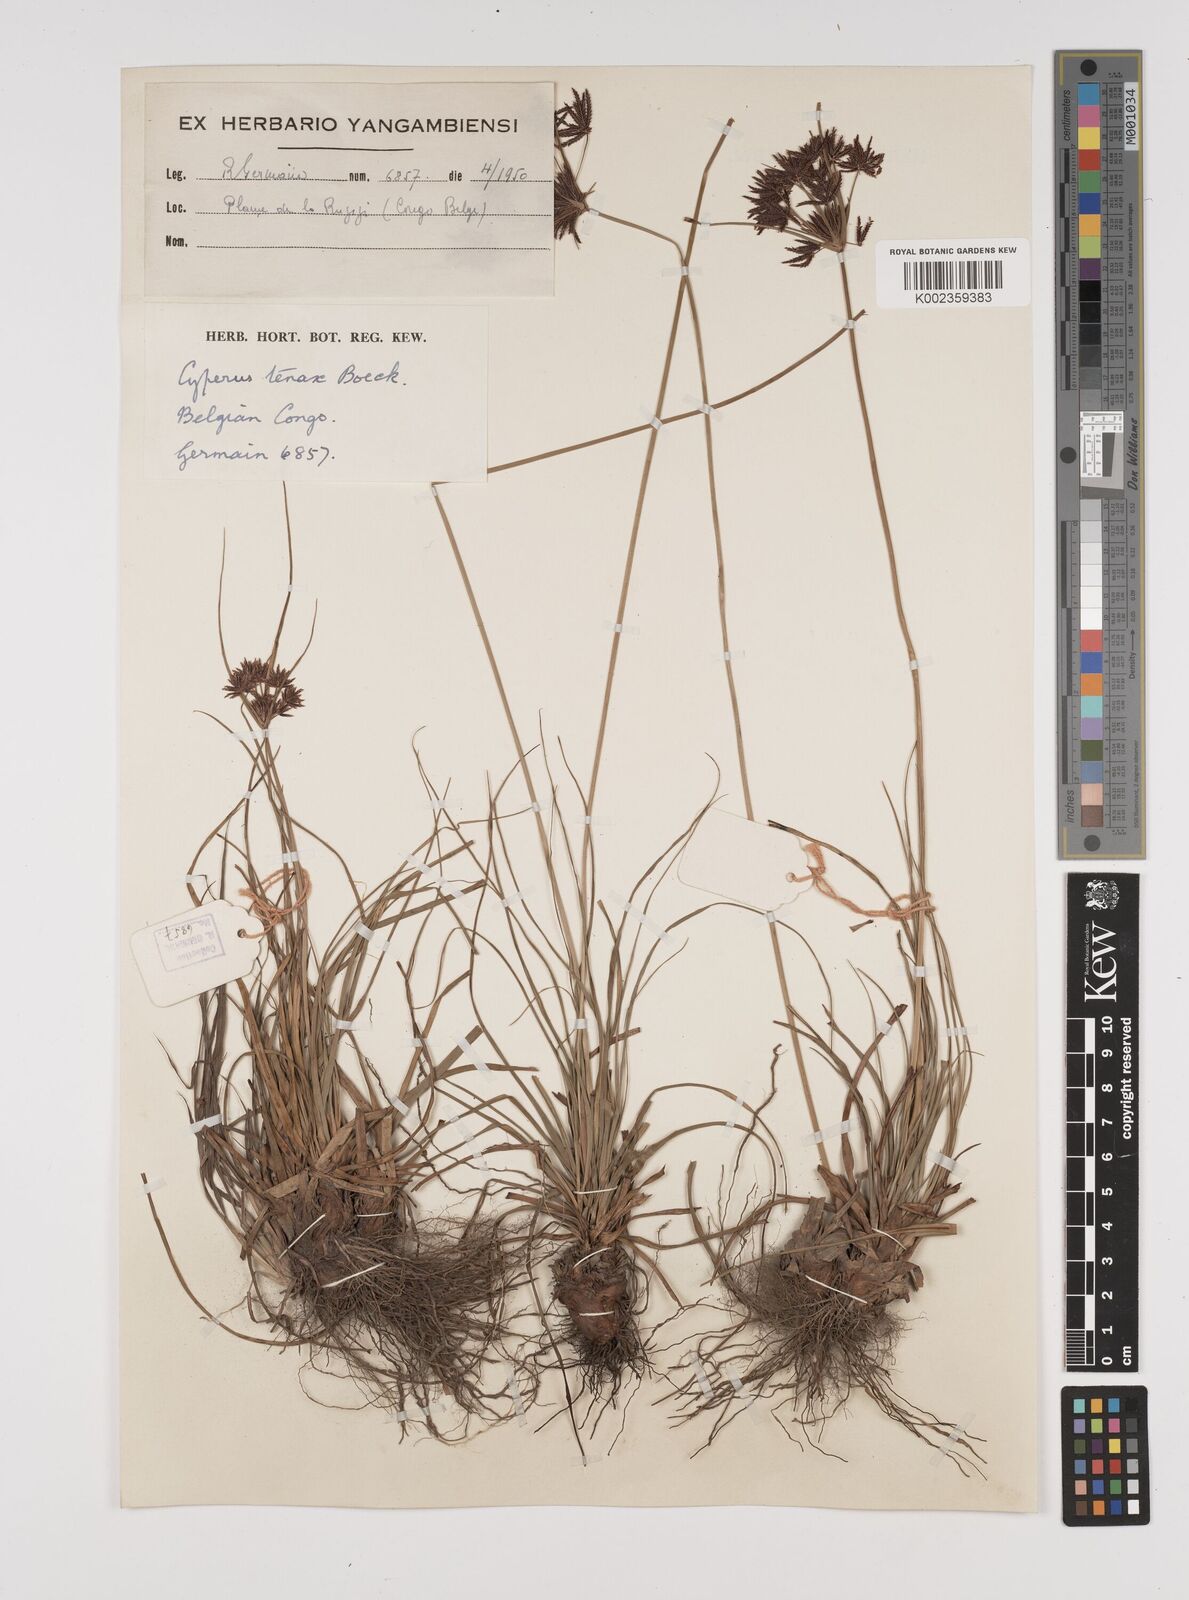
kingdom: Plantae
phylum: Tracheophyta
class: Liliopsida
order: Poales
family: Cyperaceae
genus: Cyperus
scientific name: Cyperus tenax
